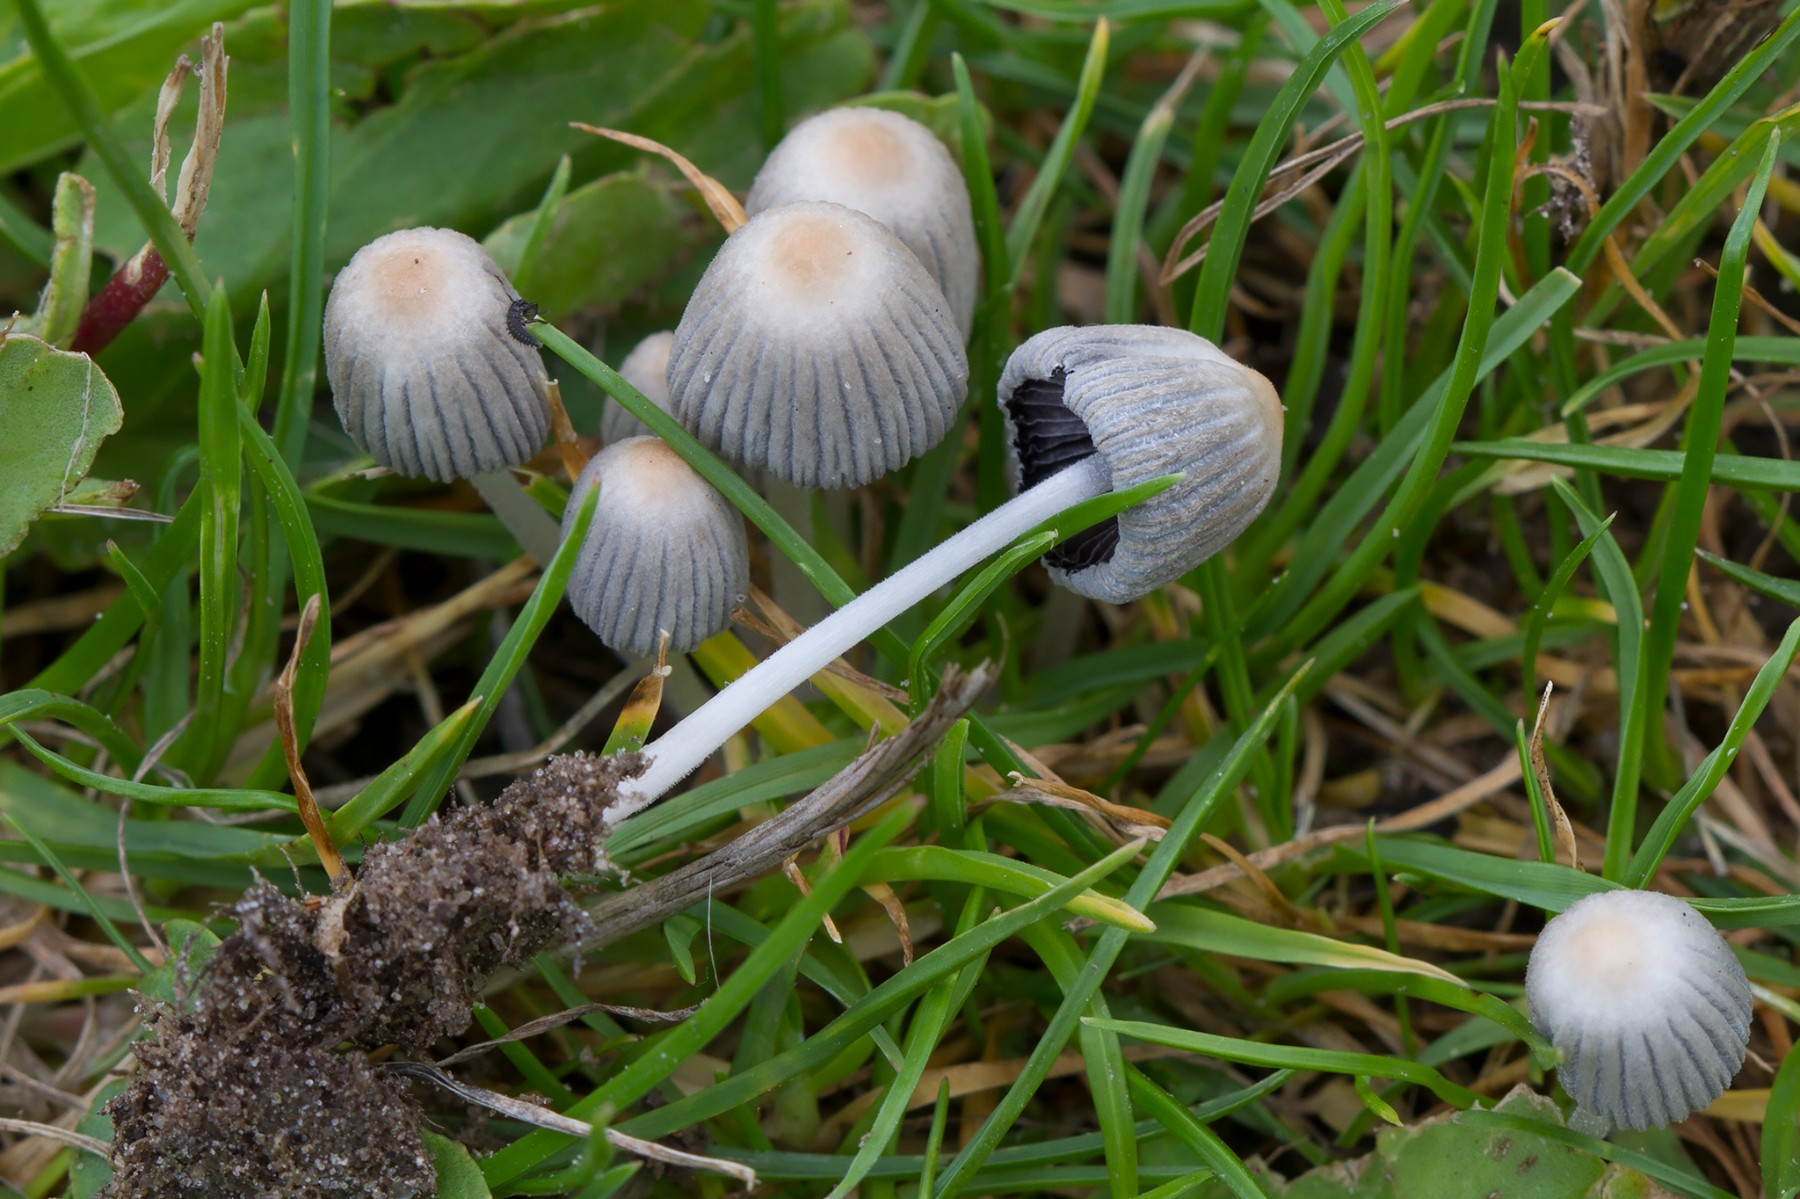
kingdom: Fungi
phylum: Basidiomycota
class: Agaricomycetes
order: Agaricales
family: Psathyrellaceae
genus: Coprinellus
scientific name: Coprinellus disseminatus
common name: bredsået blækhat
